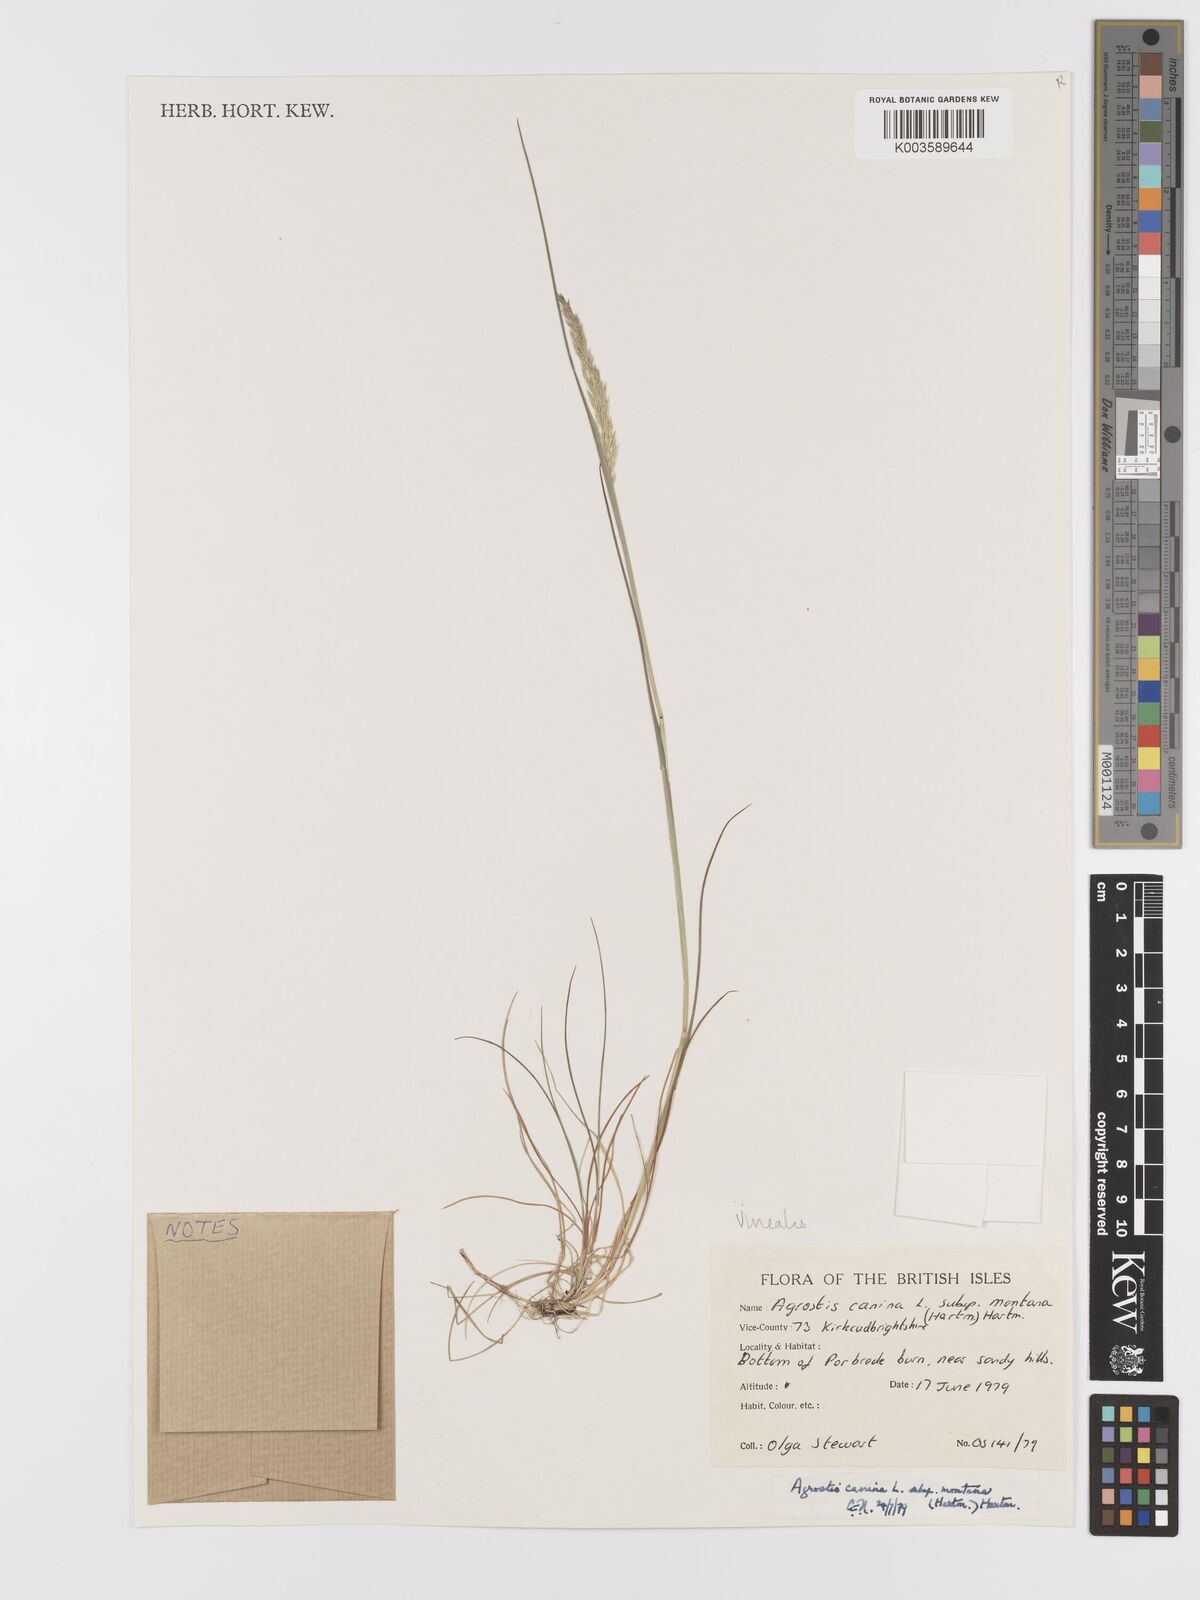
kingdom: Plantae
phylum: Tracheophyta
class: Liliopsida
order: Poales
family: Poaceae
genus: Agrostis
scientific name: Agrostis
